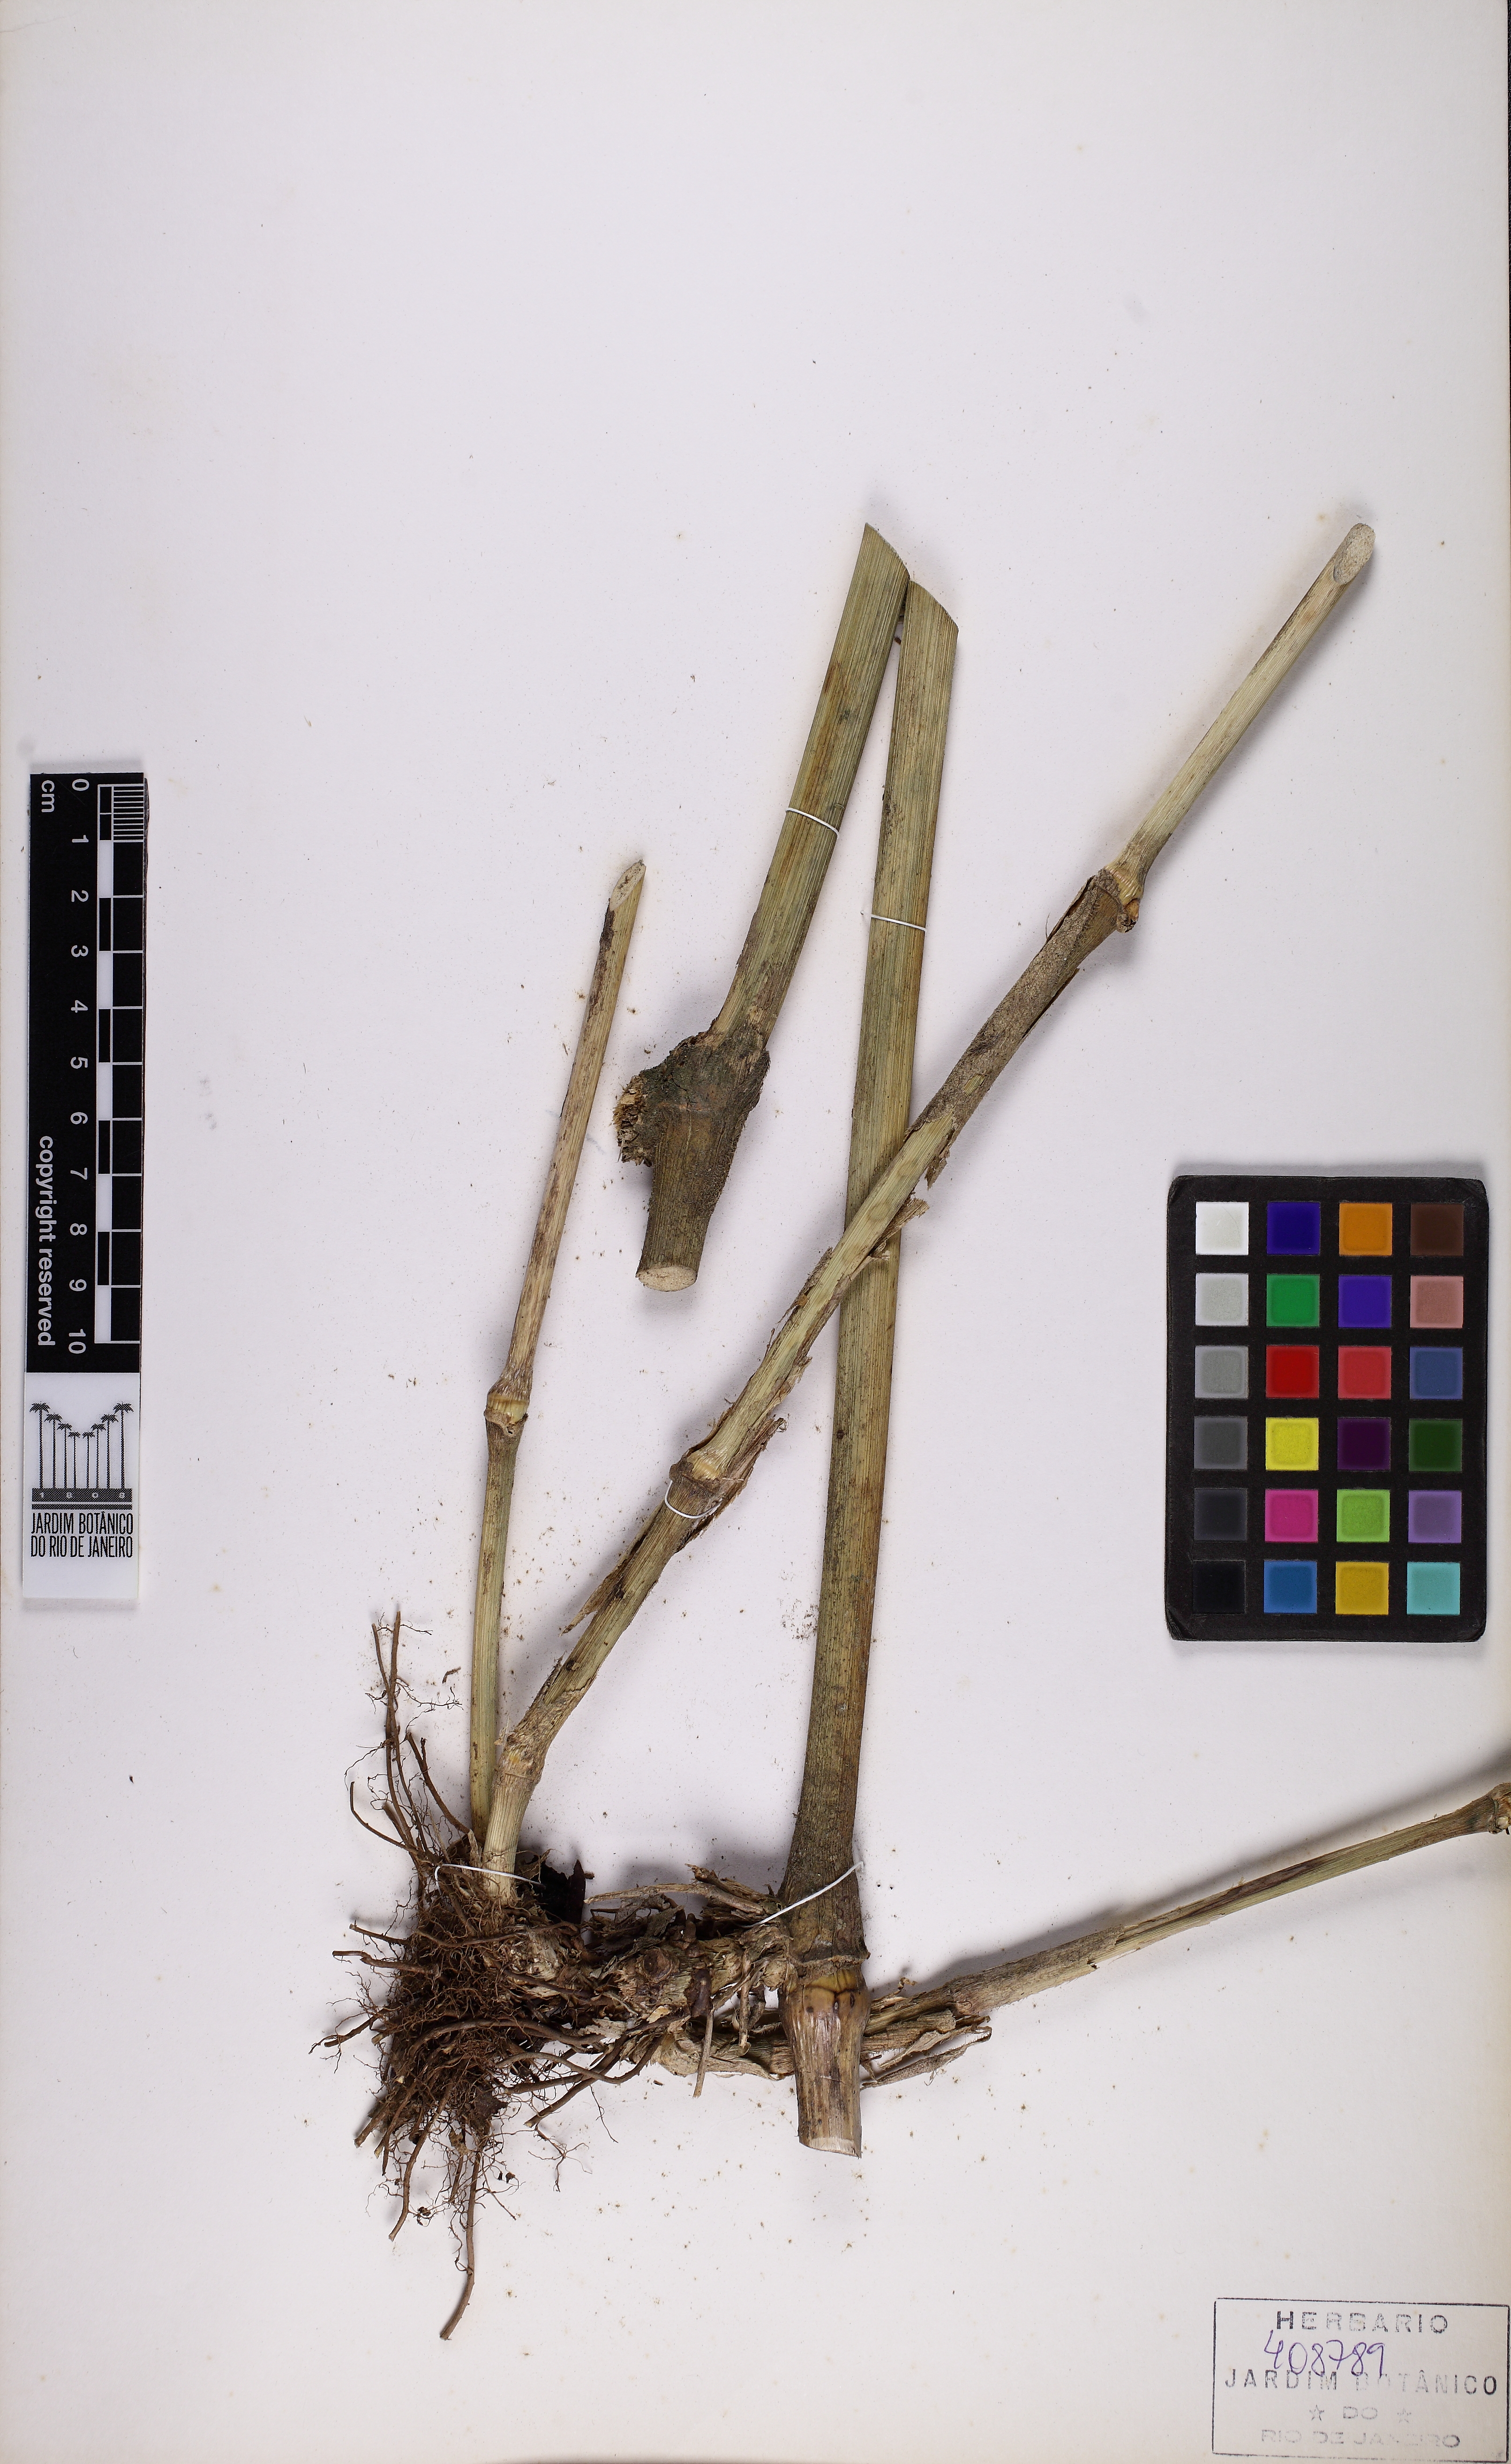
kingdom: Plantae
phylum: Tracheophyta
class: Liliopsida
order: Poales
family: Poaceae
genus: Chusquea
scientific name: Chusquea capitata
